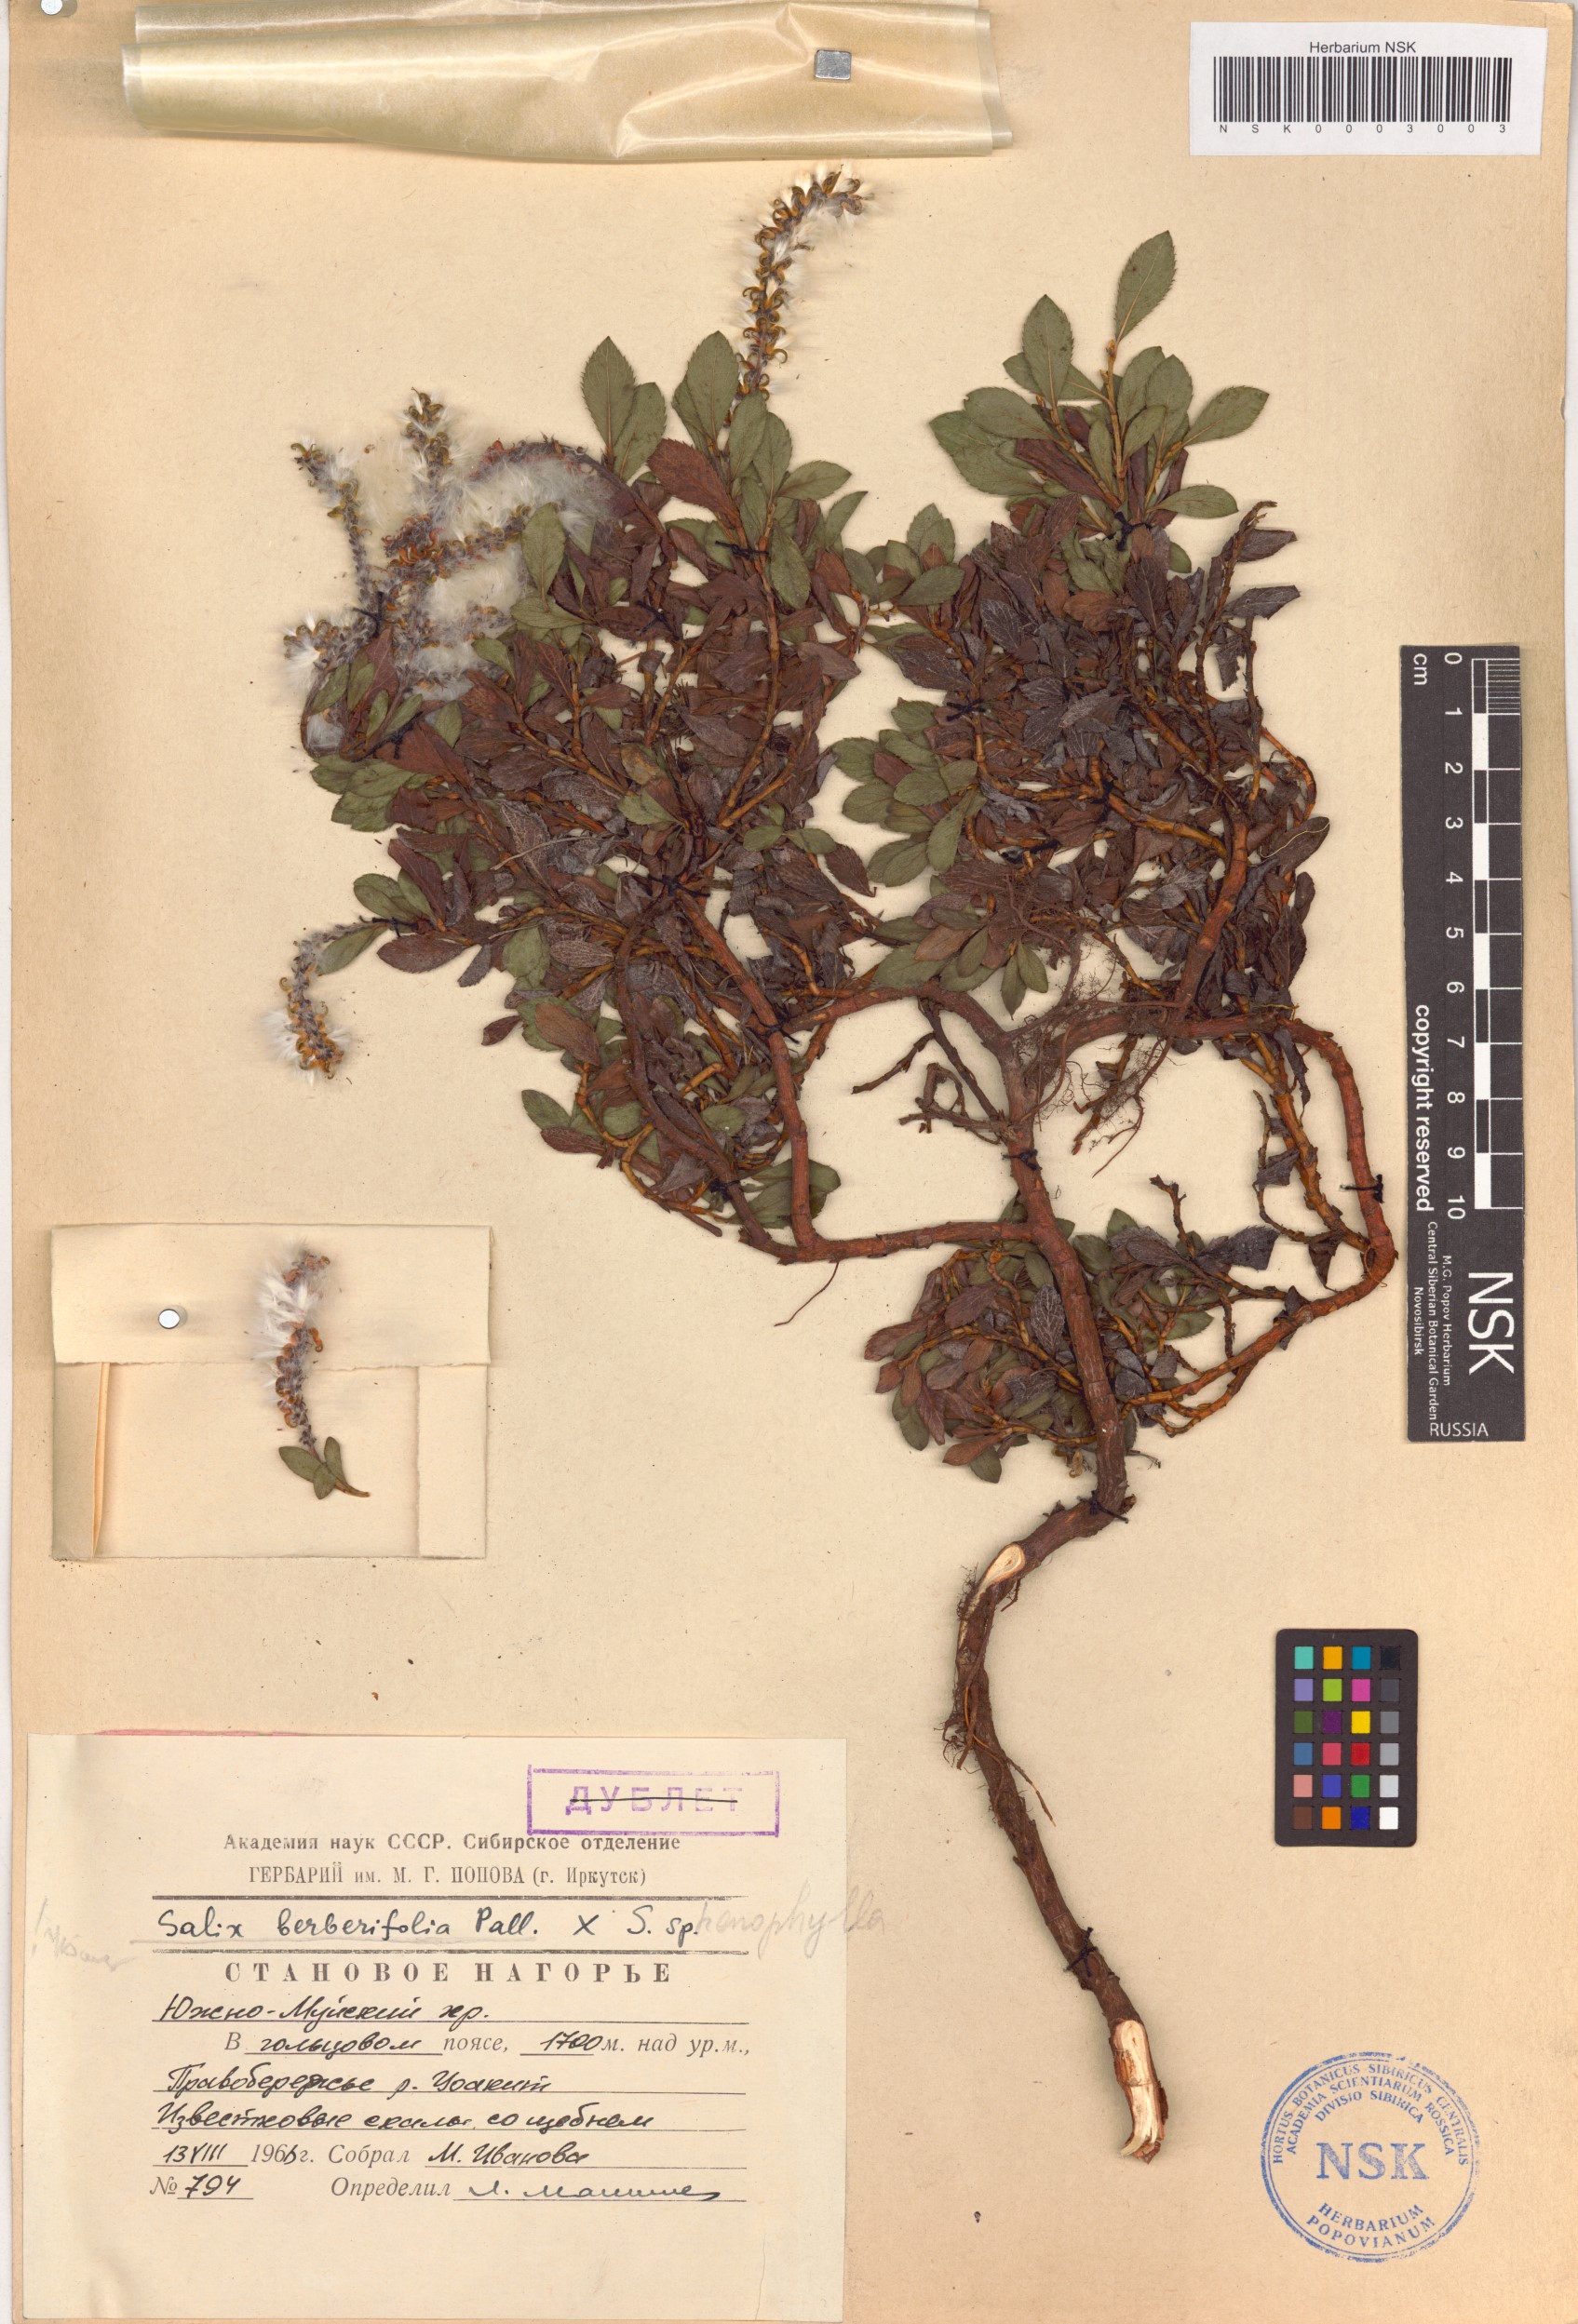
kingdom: Plantae
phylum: Tracheophyta
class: Magnoliopsida
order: Malpighiales
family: Salicaceae
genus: Salix
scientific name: Salix berberifolia
